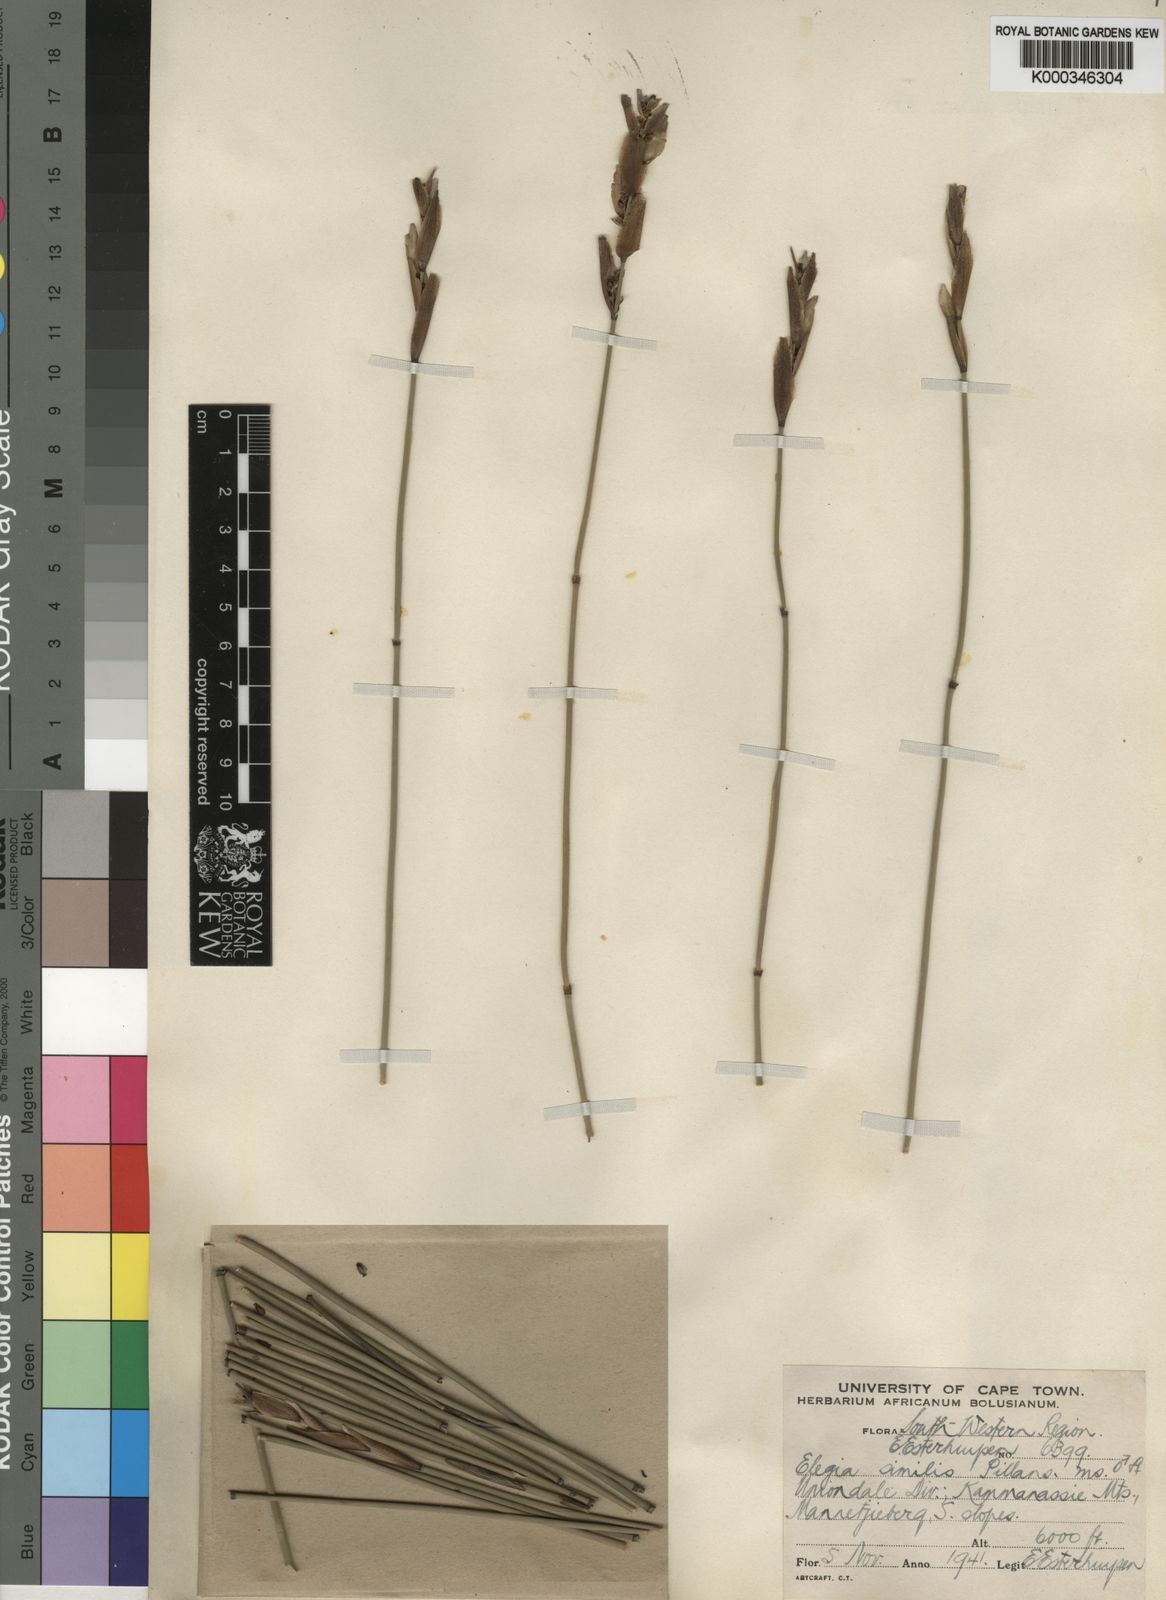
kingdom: Plantae
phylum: Tracheophyta
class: Liliopsida
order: Poales
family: Restionaceae
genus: Elegia
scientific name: Elegia altigena
